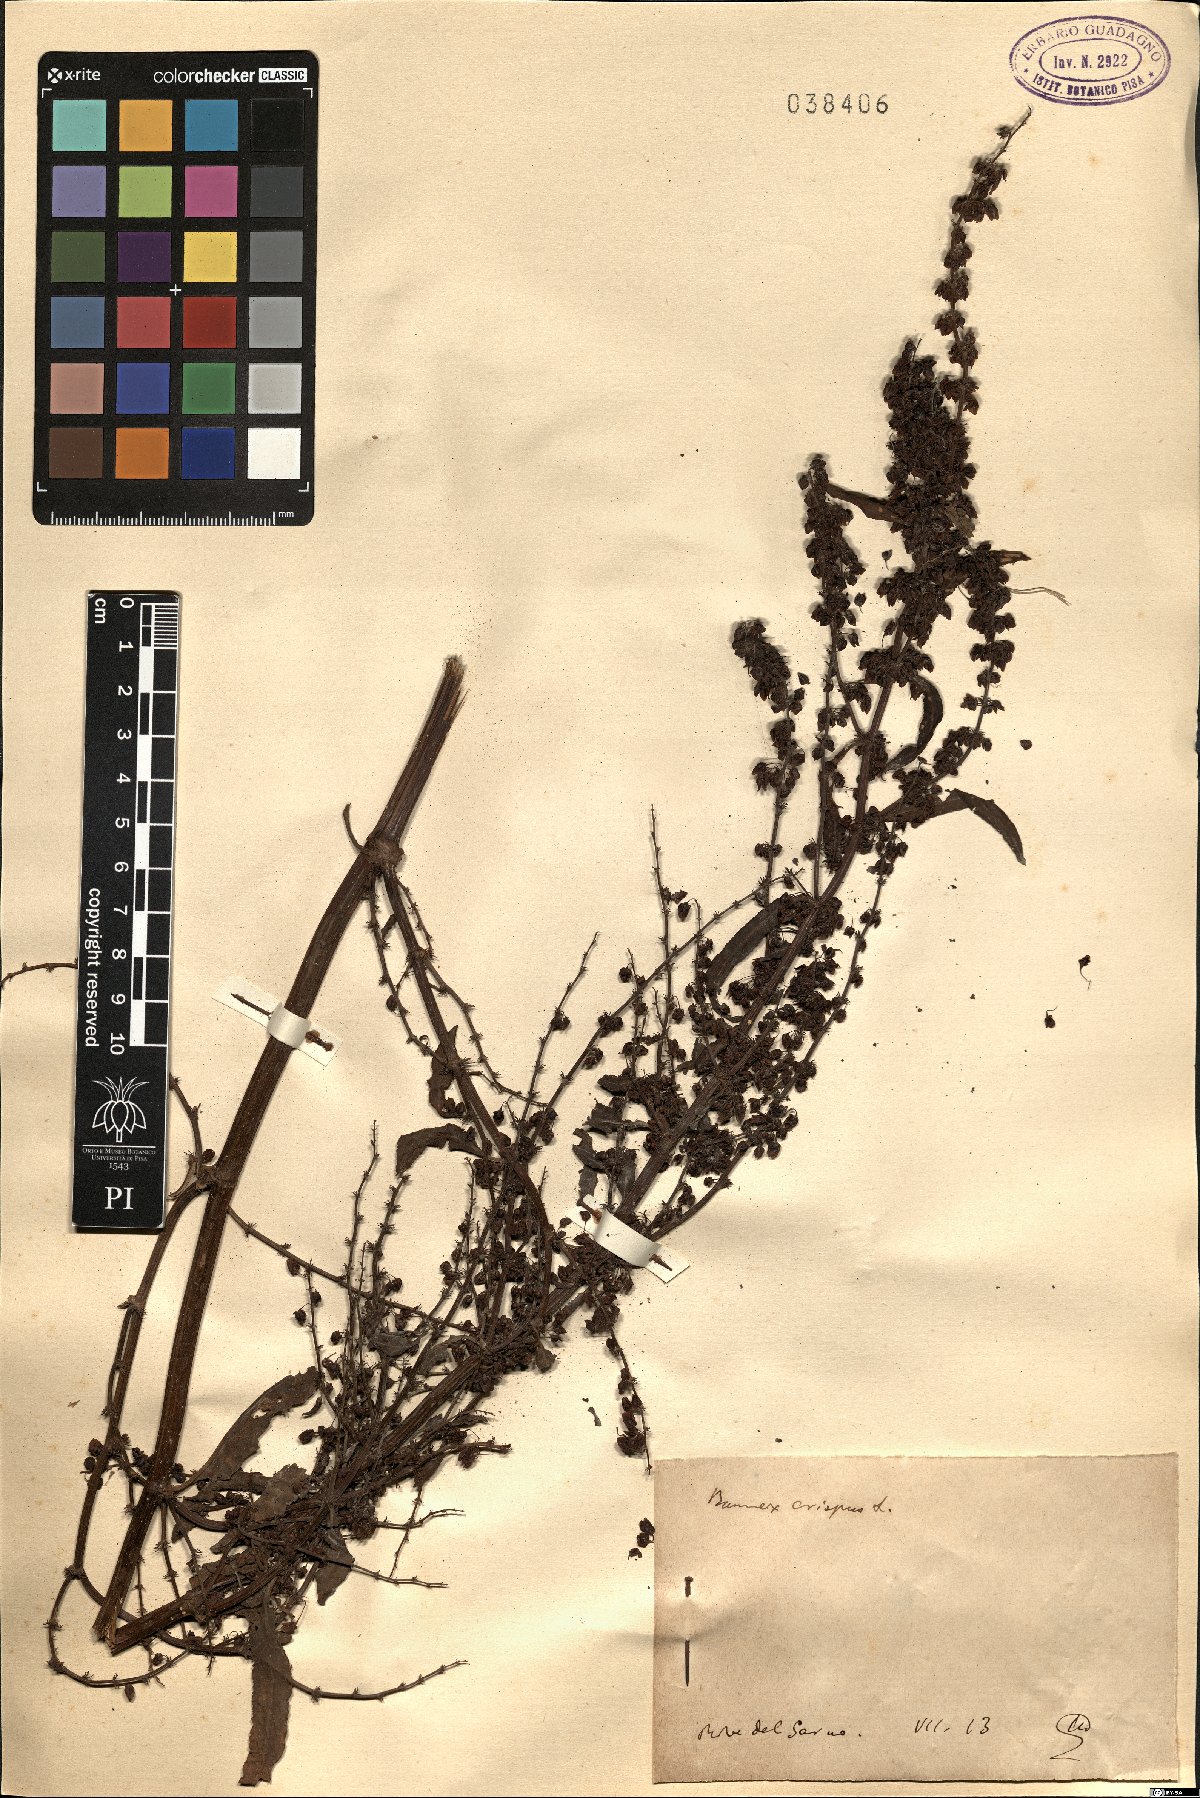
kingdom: Plantae
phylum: Tracheophyta
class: Magnoliopsida
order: Caryophyllales
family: Polygonaceae
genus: Rumex
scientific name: Rumex crispus
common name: Curled dock
